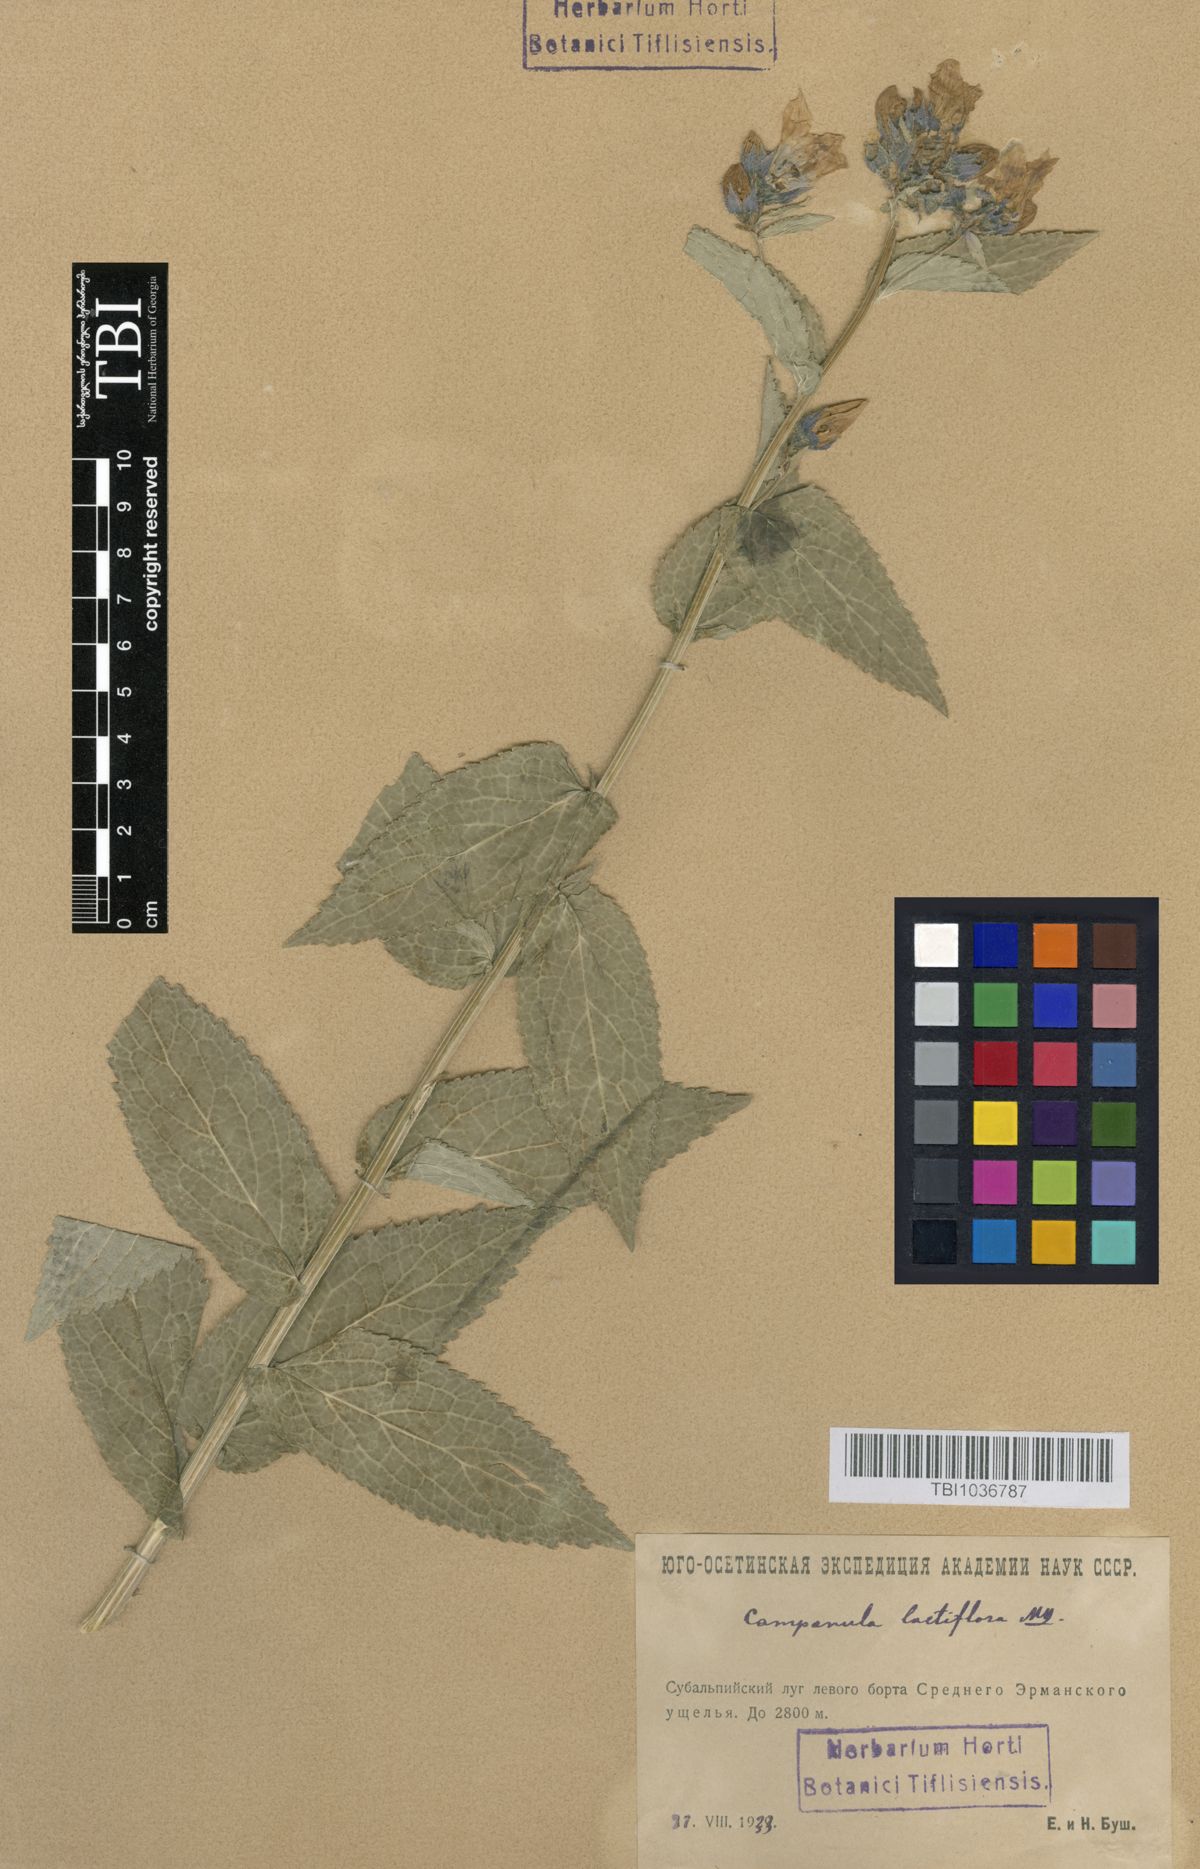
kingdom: Plantae
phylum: Tracheophyta
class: Magnoliopsida
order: Asterales
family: Campanulaceae
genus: Campanula
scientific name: Campanula lactiflora
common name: Milky bellflower
